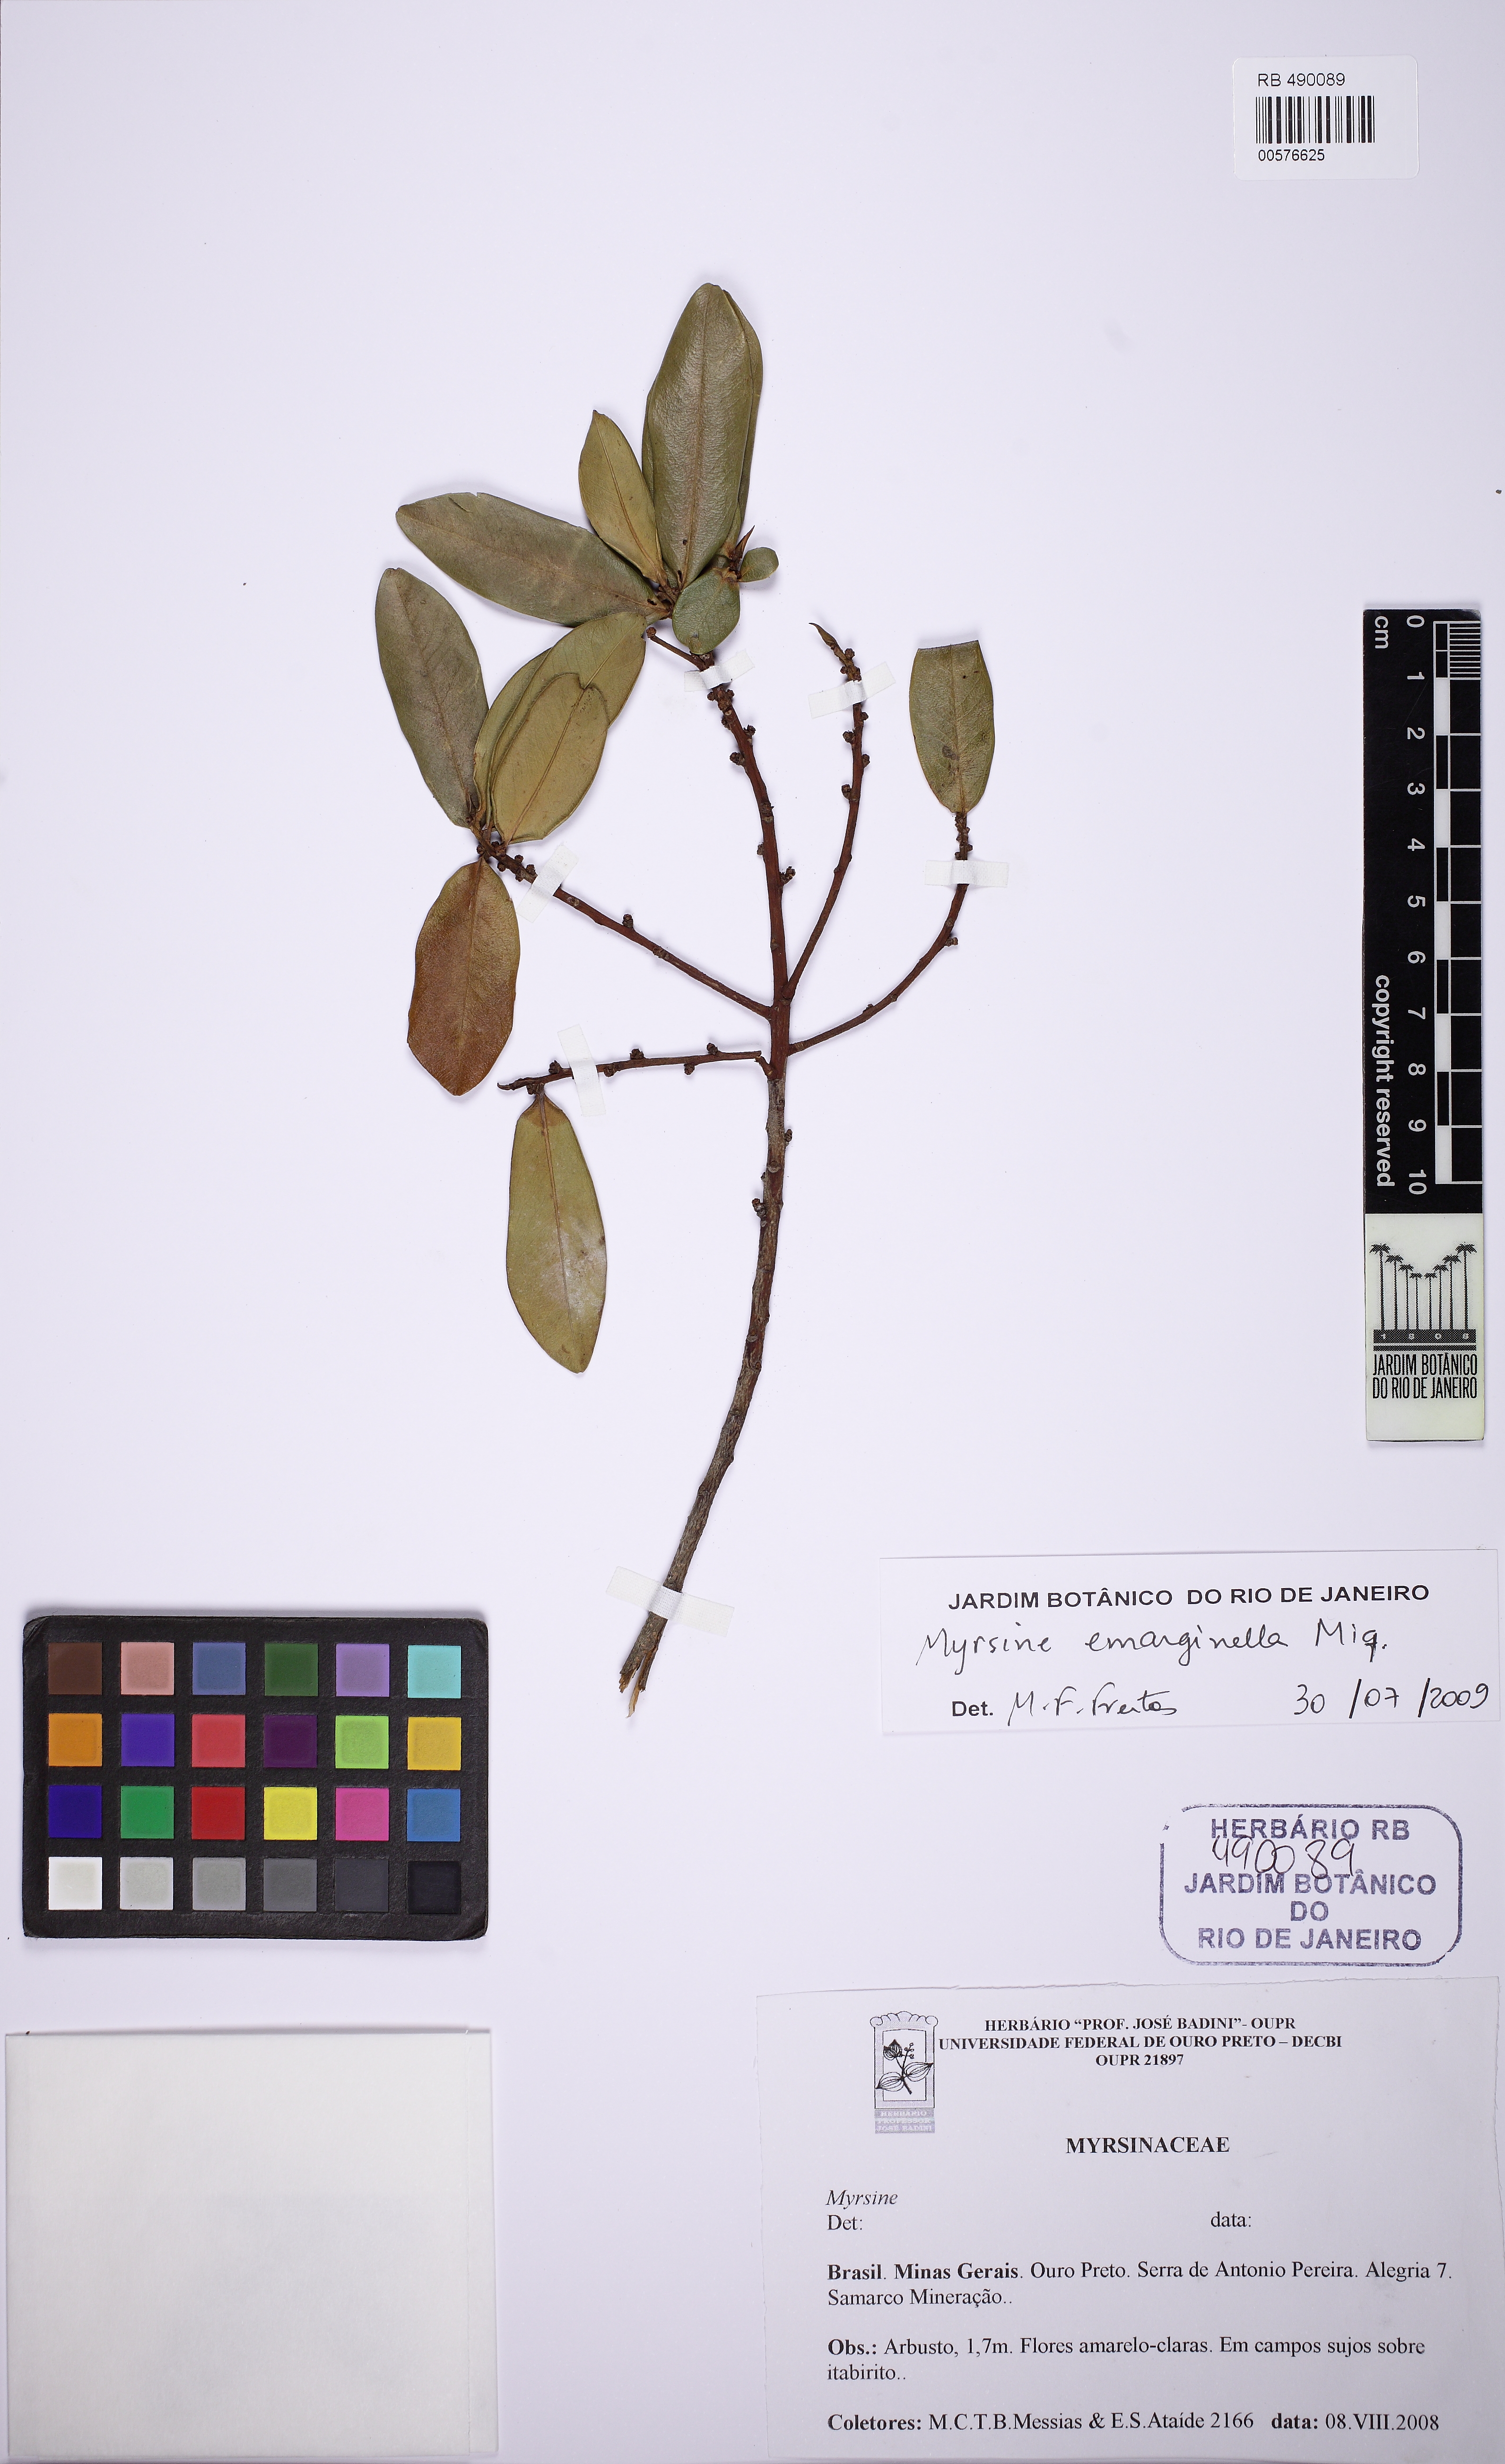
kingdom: Plantae
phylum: Tracheophyta
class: Magnoliopsida
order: Ericales
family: Primulaceae
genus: Myrsine
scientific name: Myrsine emarginella
